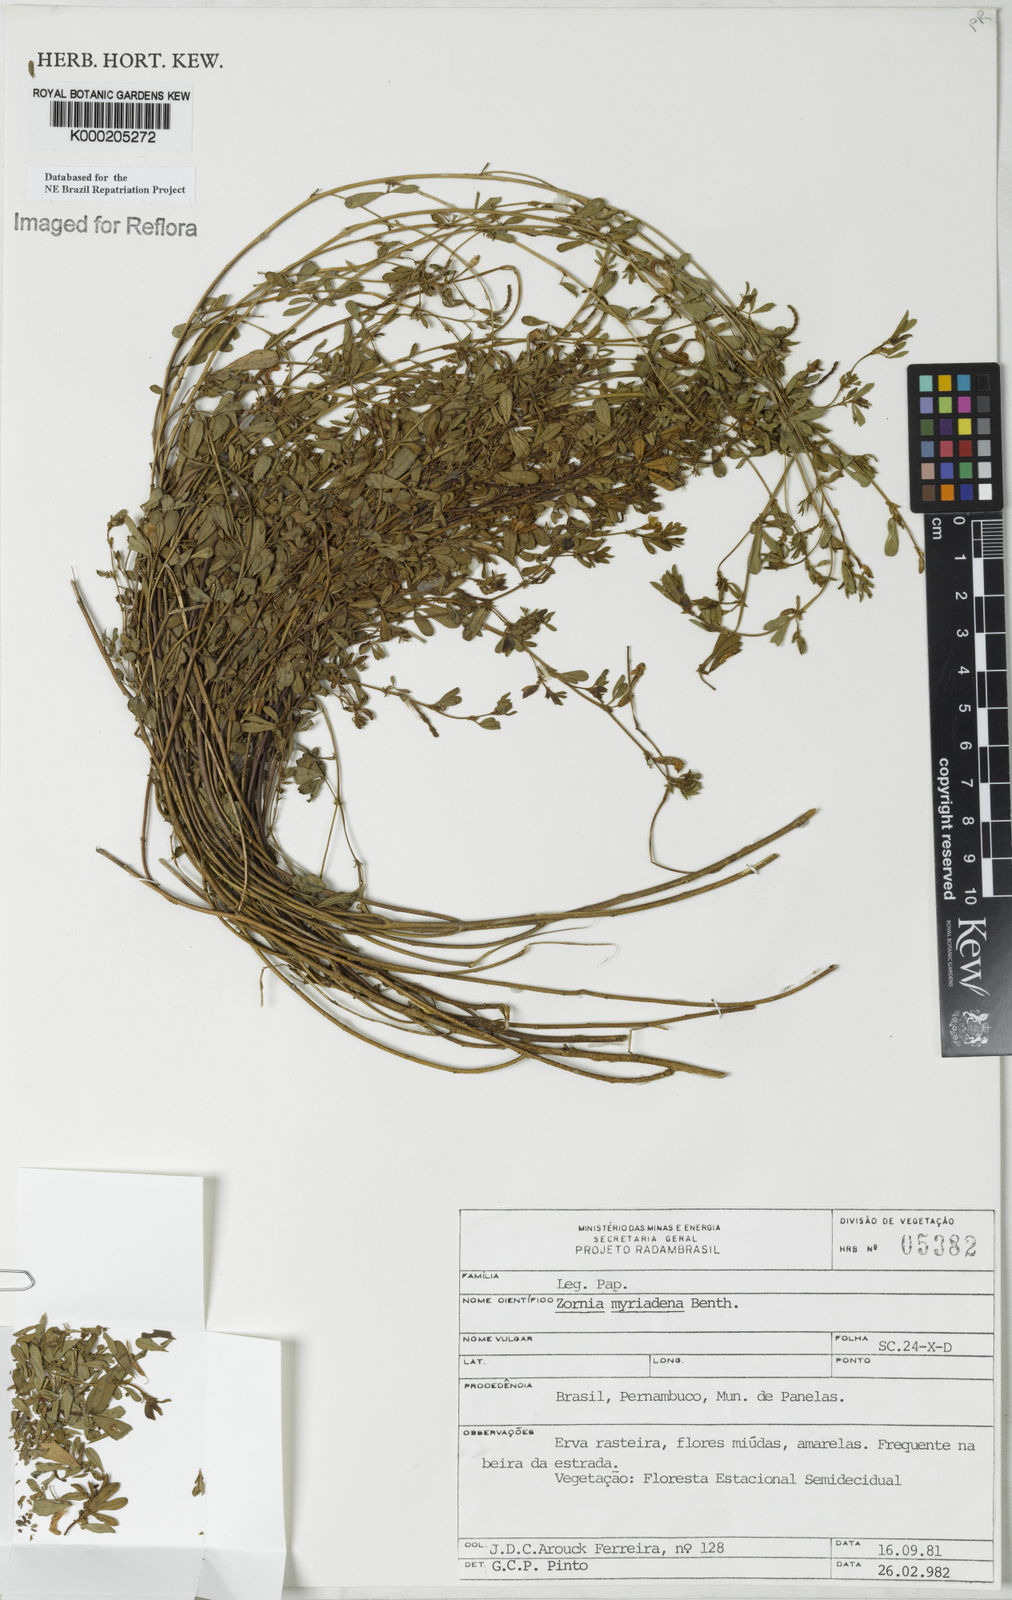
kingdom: Plantae
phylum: Tracheophyta
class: Magnoliopsida
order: Fabales
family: Fabaceae
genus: Zornia
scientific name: Zornia myriadena
